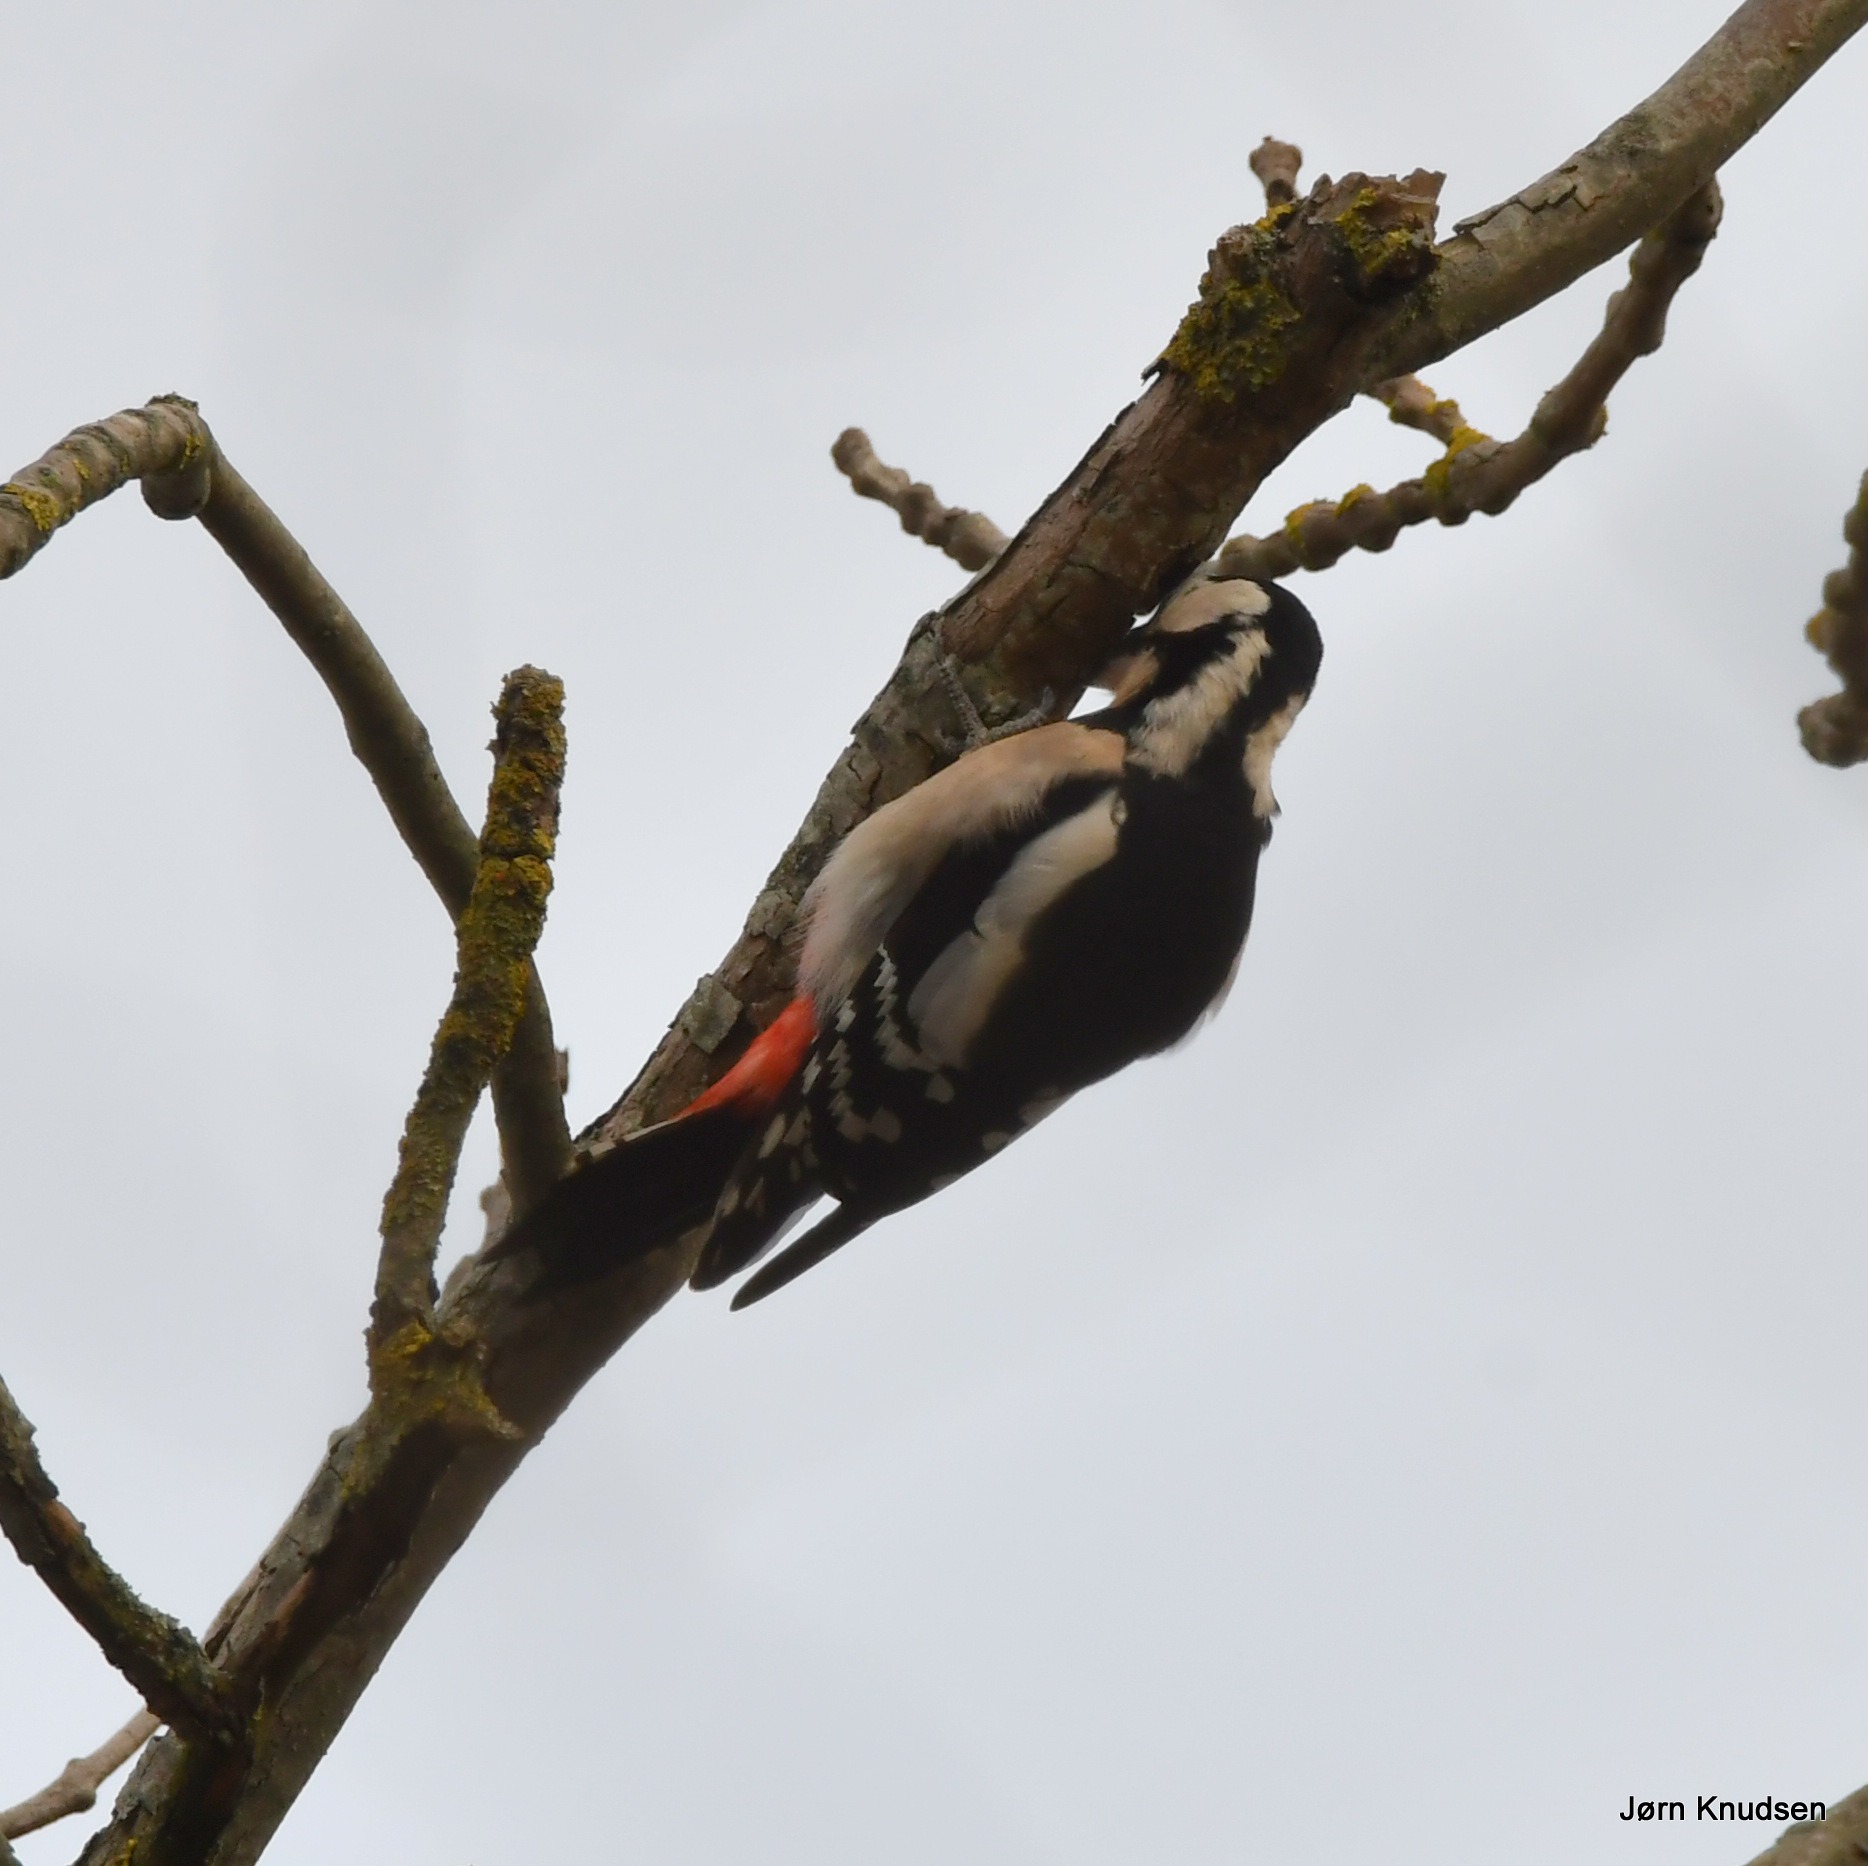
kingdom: Animalia
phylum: Chordata
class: Aves
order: Piciformes
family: Picidae
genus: Dendrocopos
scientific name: Dendrocopos major
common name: Stor flagspætte
